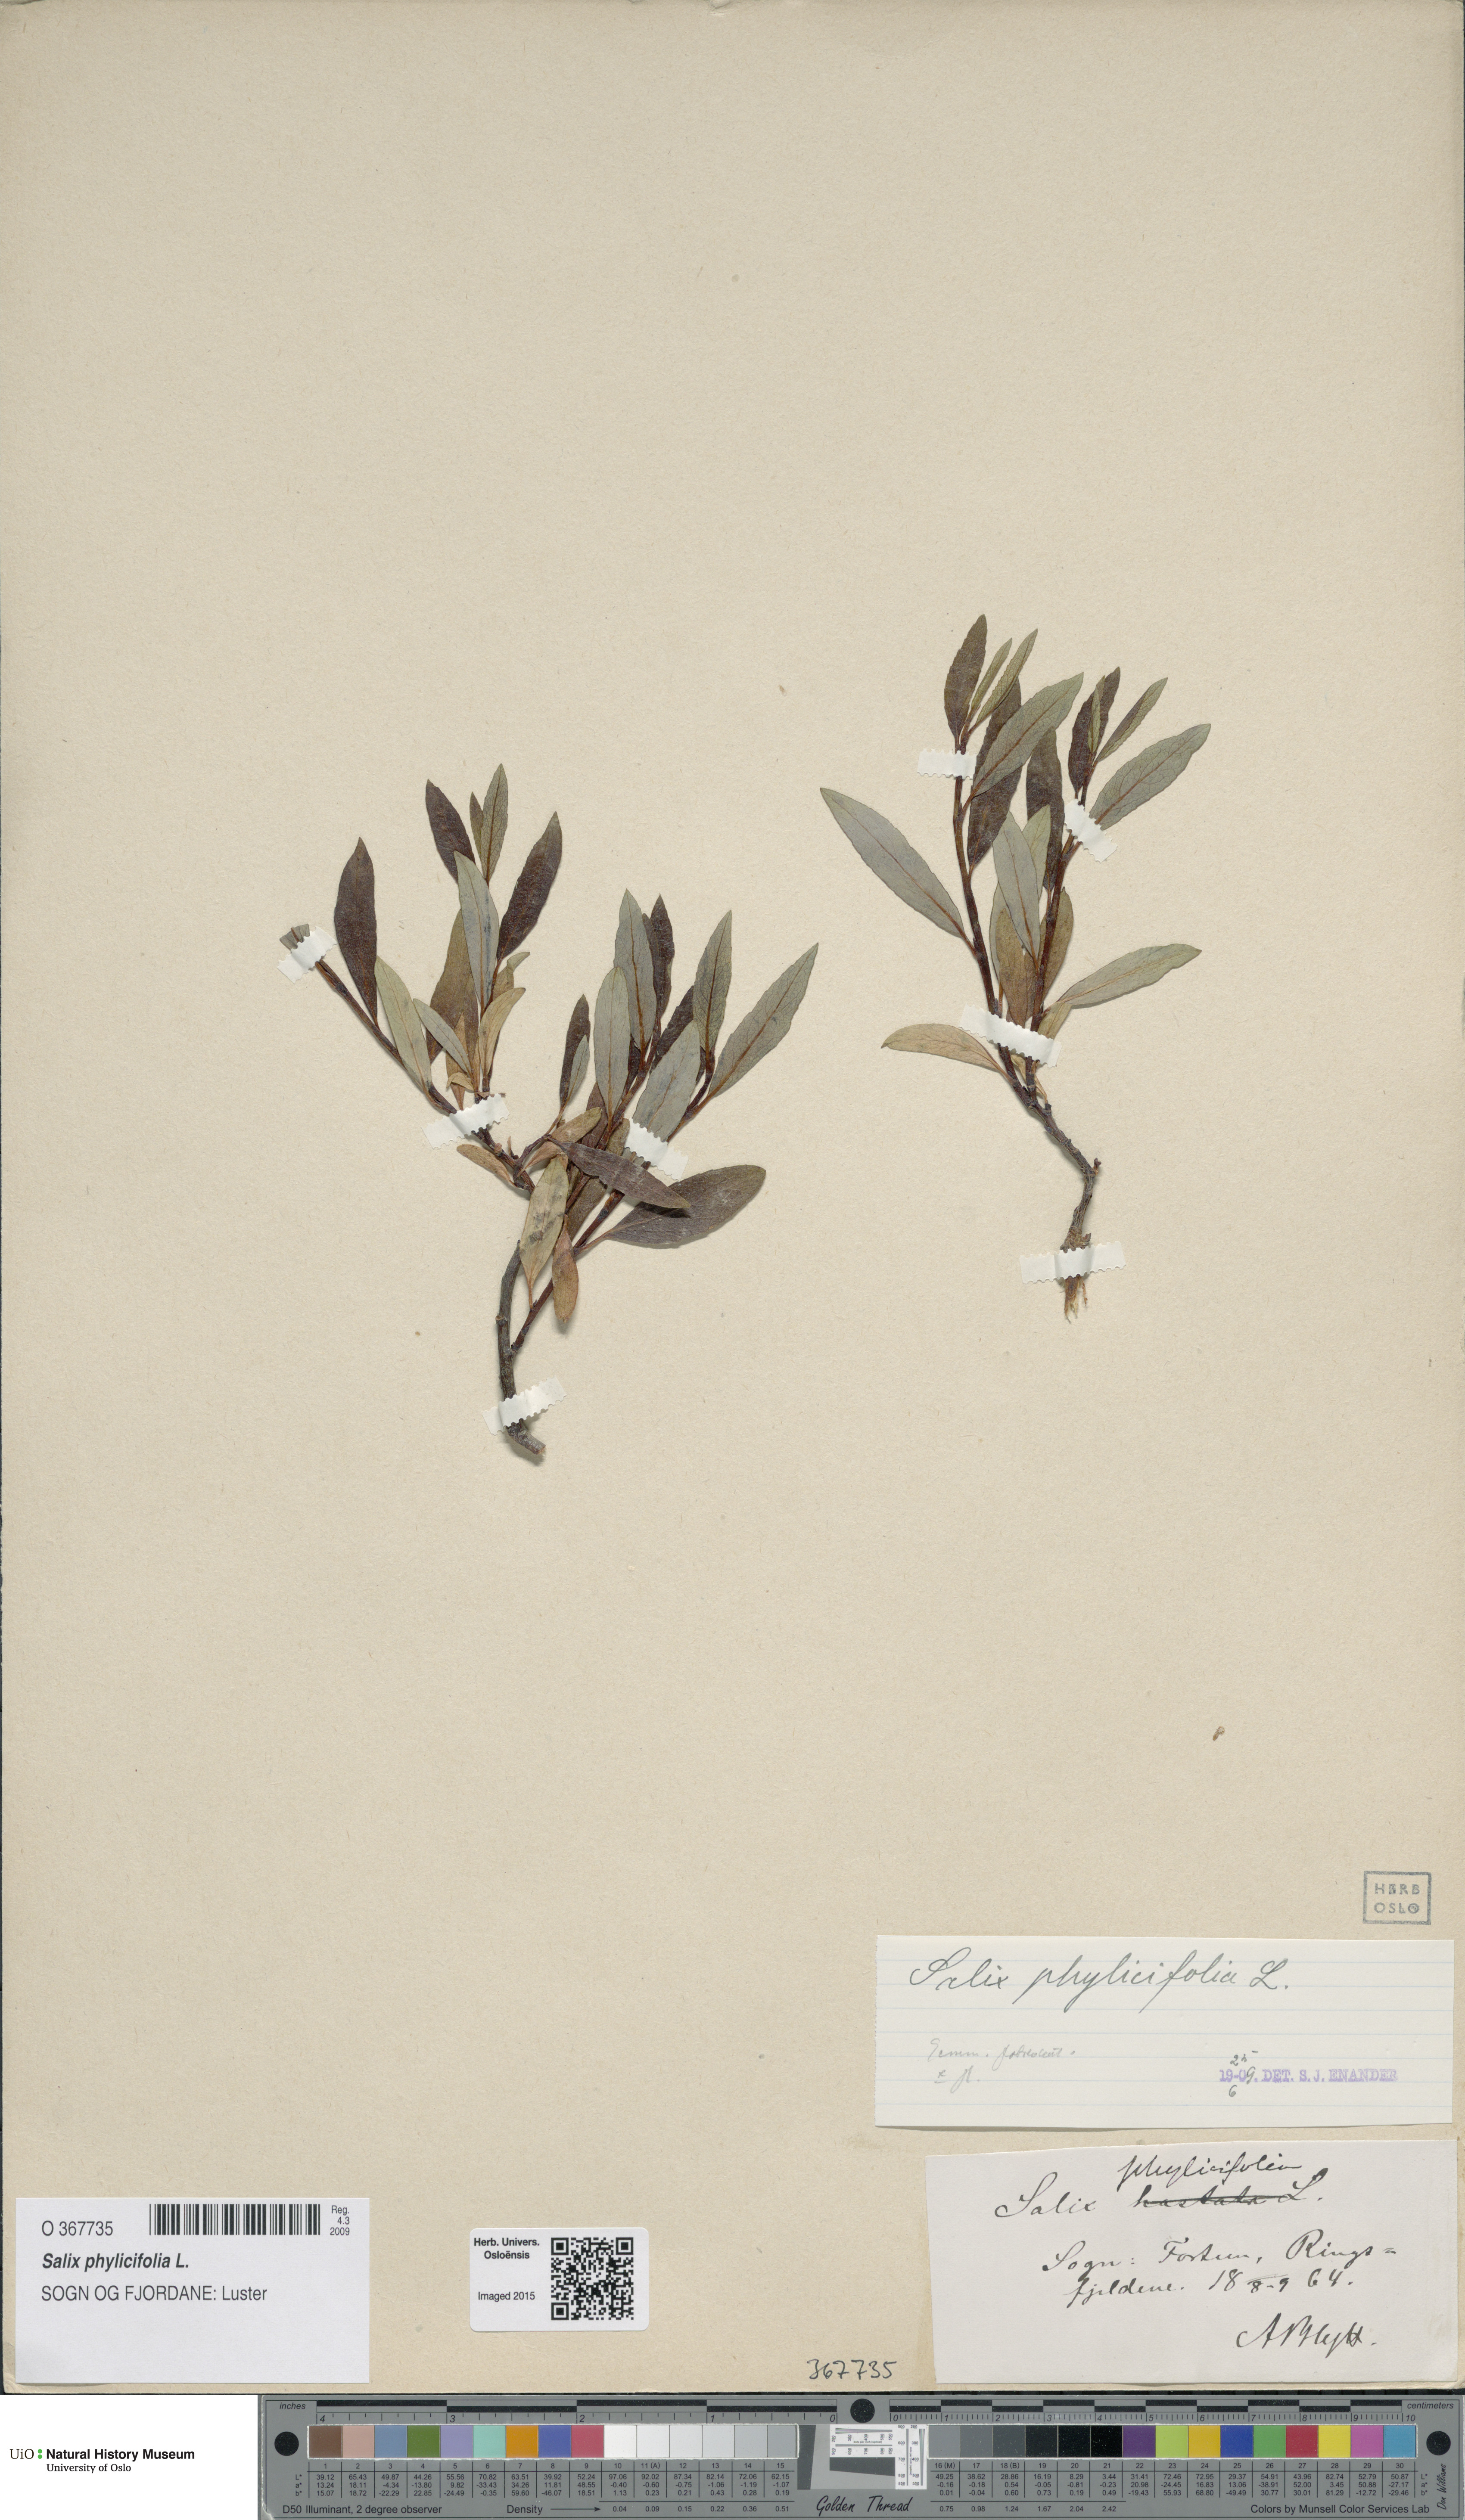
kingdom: Plantae
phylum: Tracheophyta
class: Magnoliopsida
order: Malpighiales
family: Salicaceae
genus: Salix
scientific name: Salix phylicifolia
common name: Tea-leaved willow
